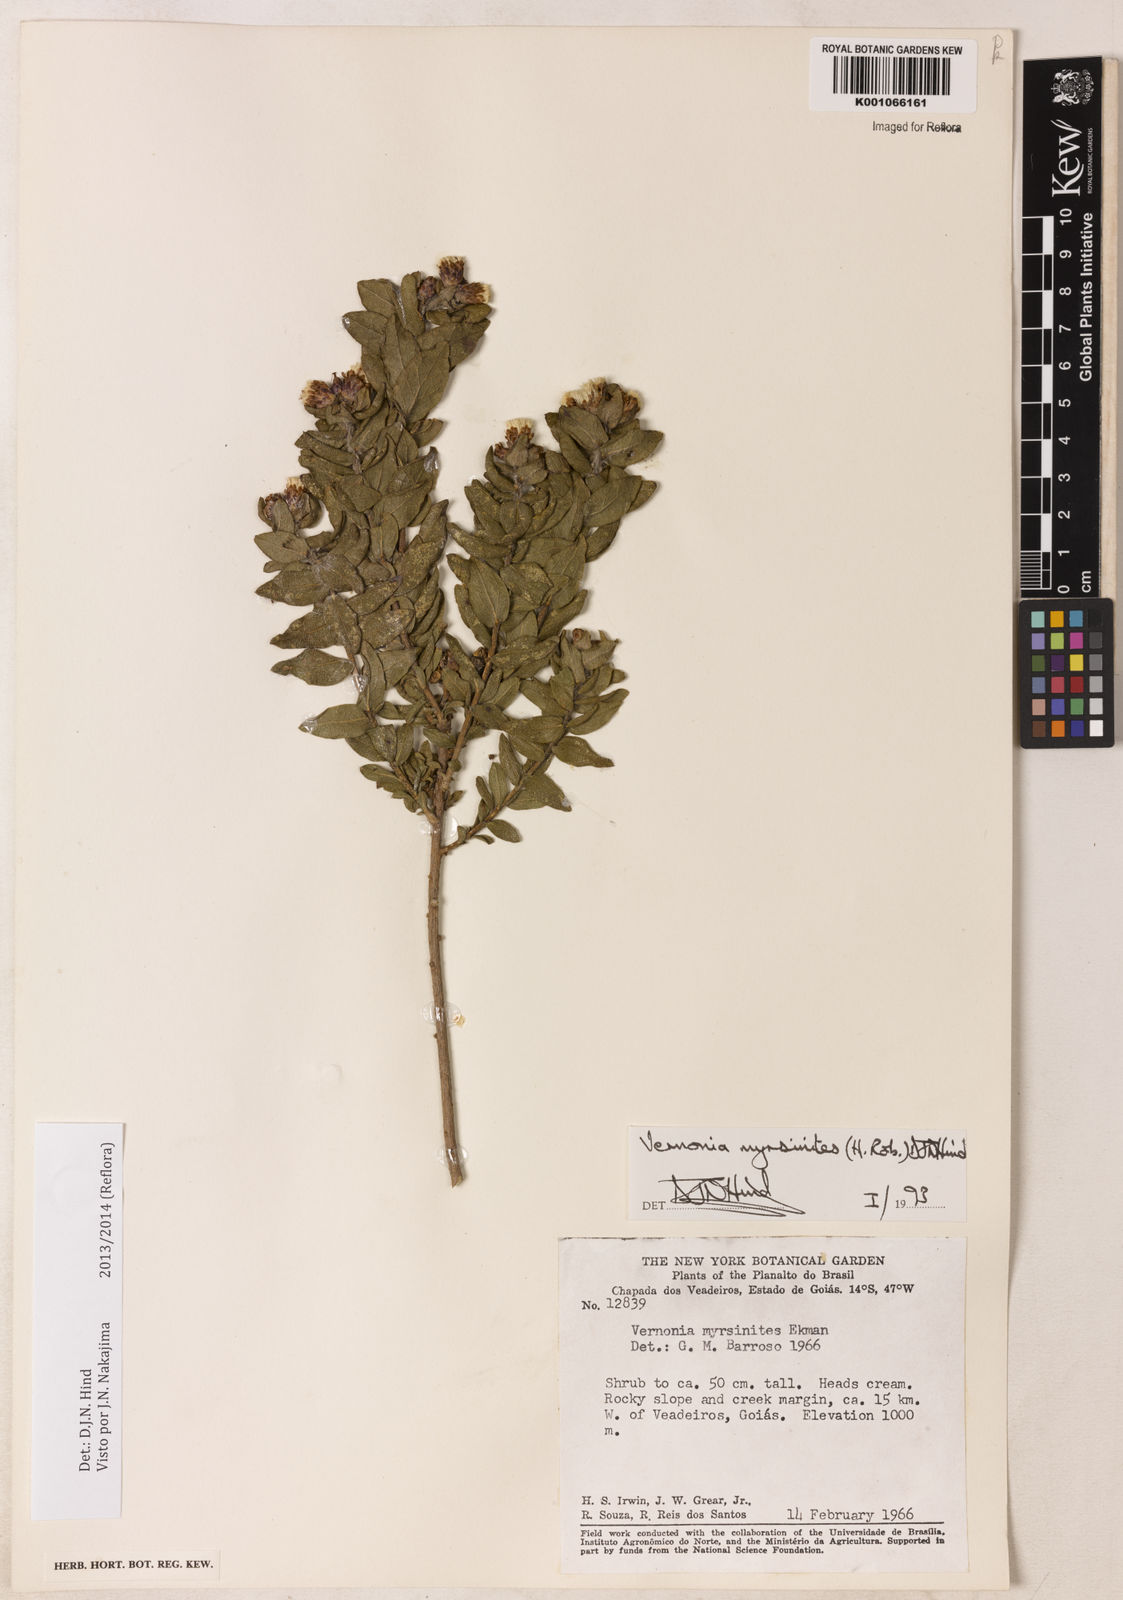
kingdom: Plantae
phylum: Tracheophyta
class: Magnoliopsida
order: Asterales
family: Asteraceae
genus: Lessingianthus
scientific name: Lessingianthus myrsinites
